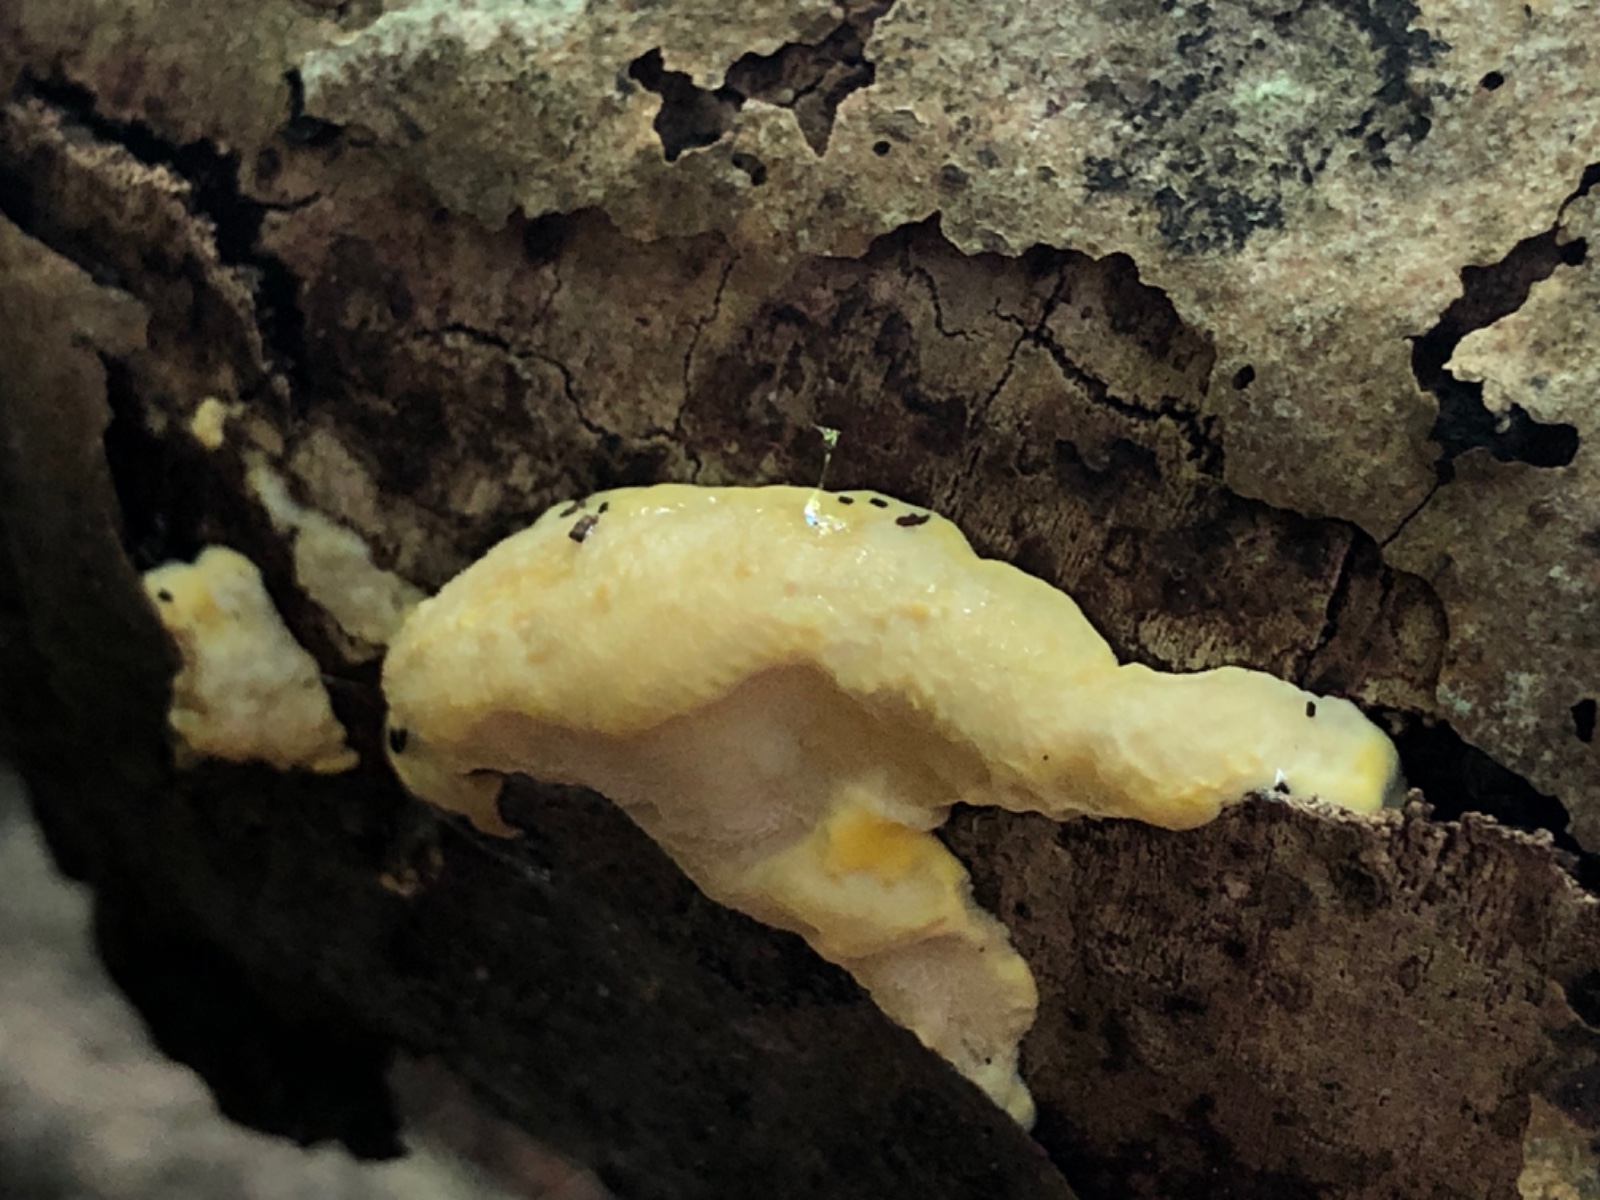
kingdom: Fungi
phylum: Basidiomycota
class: Agaricomycetes
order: Polyporales
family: Steccherinaceae
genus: Antrodiella
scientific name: Antrodiella serpula
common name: gulrandet elastikporesvamp
